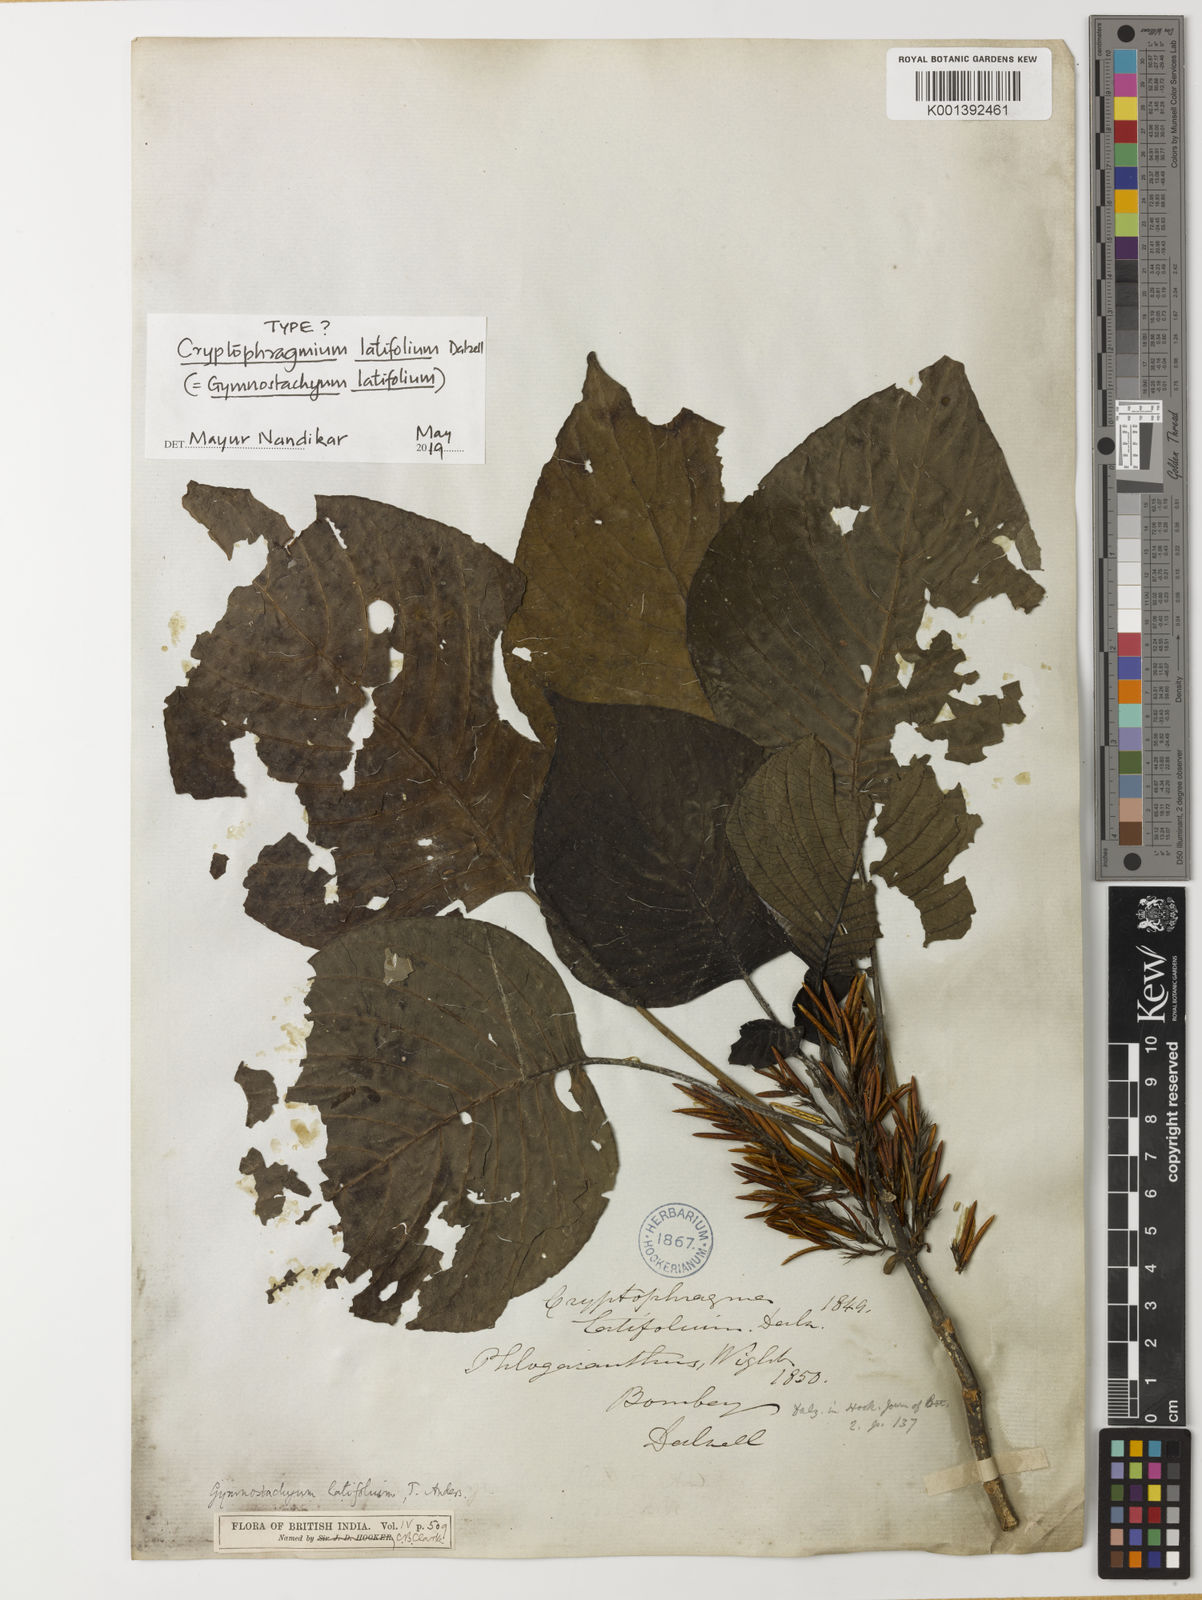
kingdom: Plantae
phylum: Tracheophyta
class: Magnoliopsida
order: Lamiales
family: Acanthaceae
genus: Gymnostachyum
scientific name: Gymnostachyum latifolium
